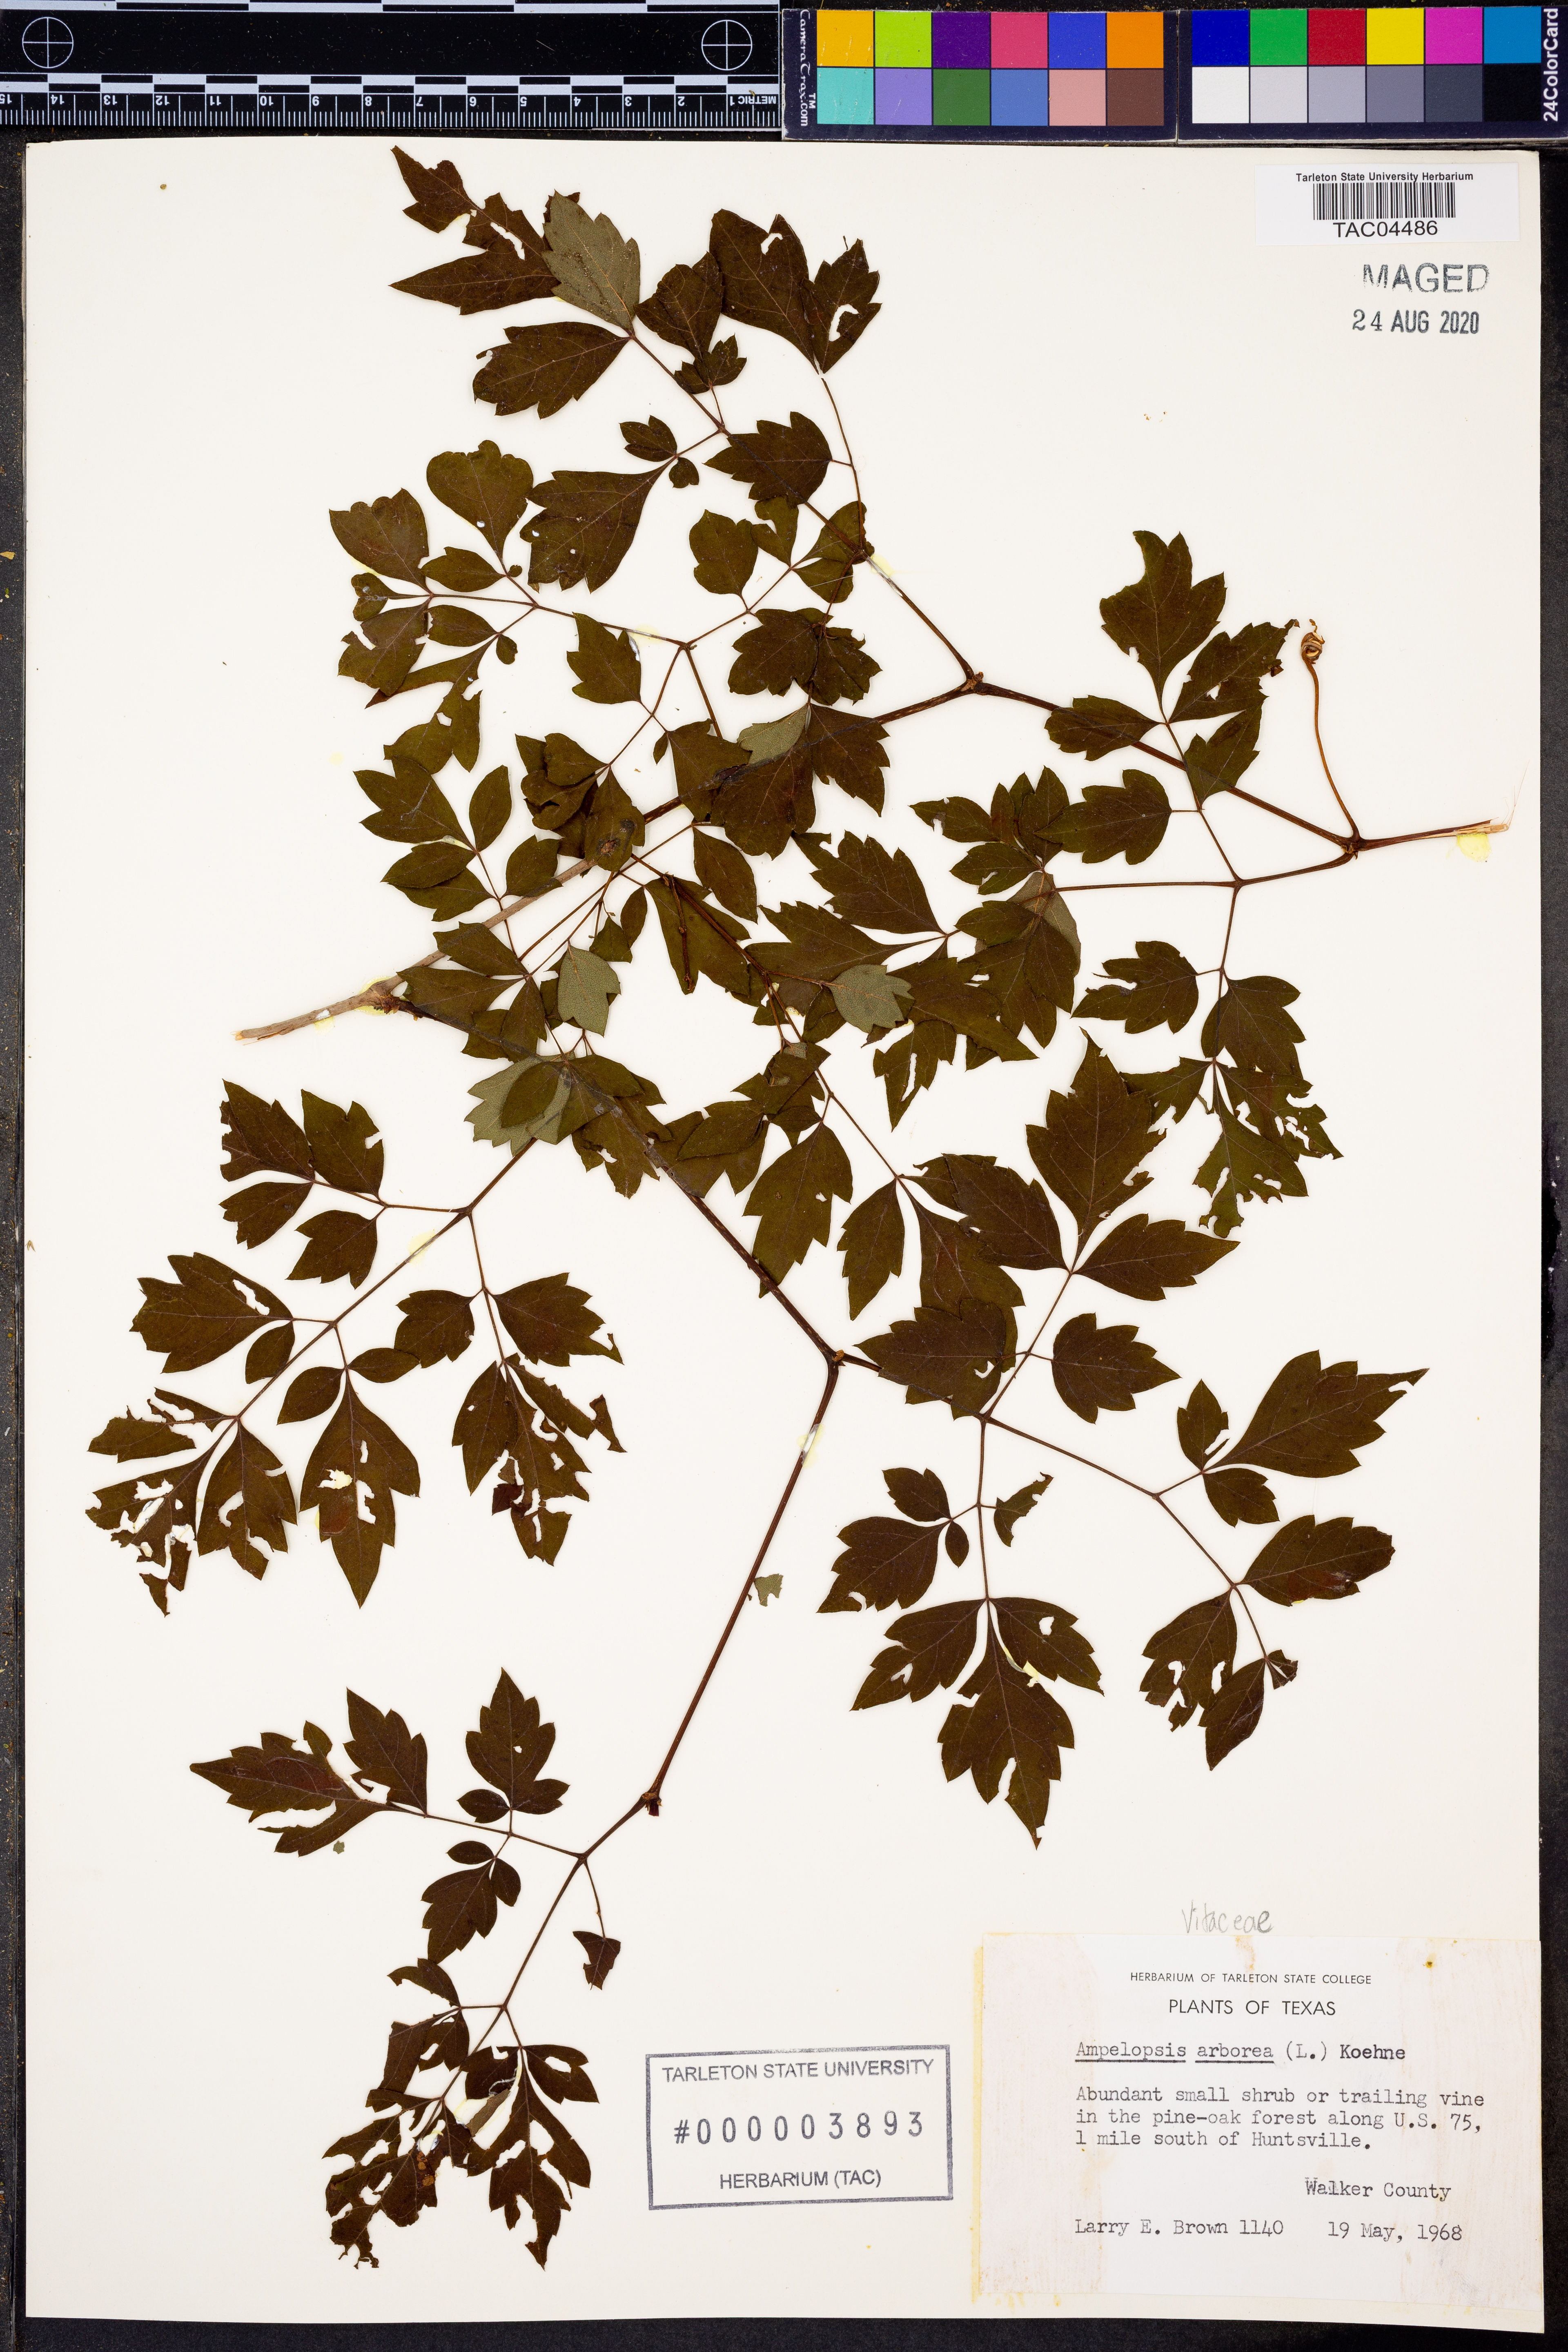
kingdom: Plantae
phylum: Tracheophyta
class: Magnoliopsida
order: Vitales
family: Vitaceae
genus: Nekemias
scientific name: Nekemias arborea
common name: Peppervine
